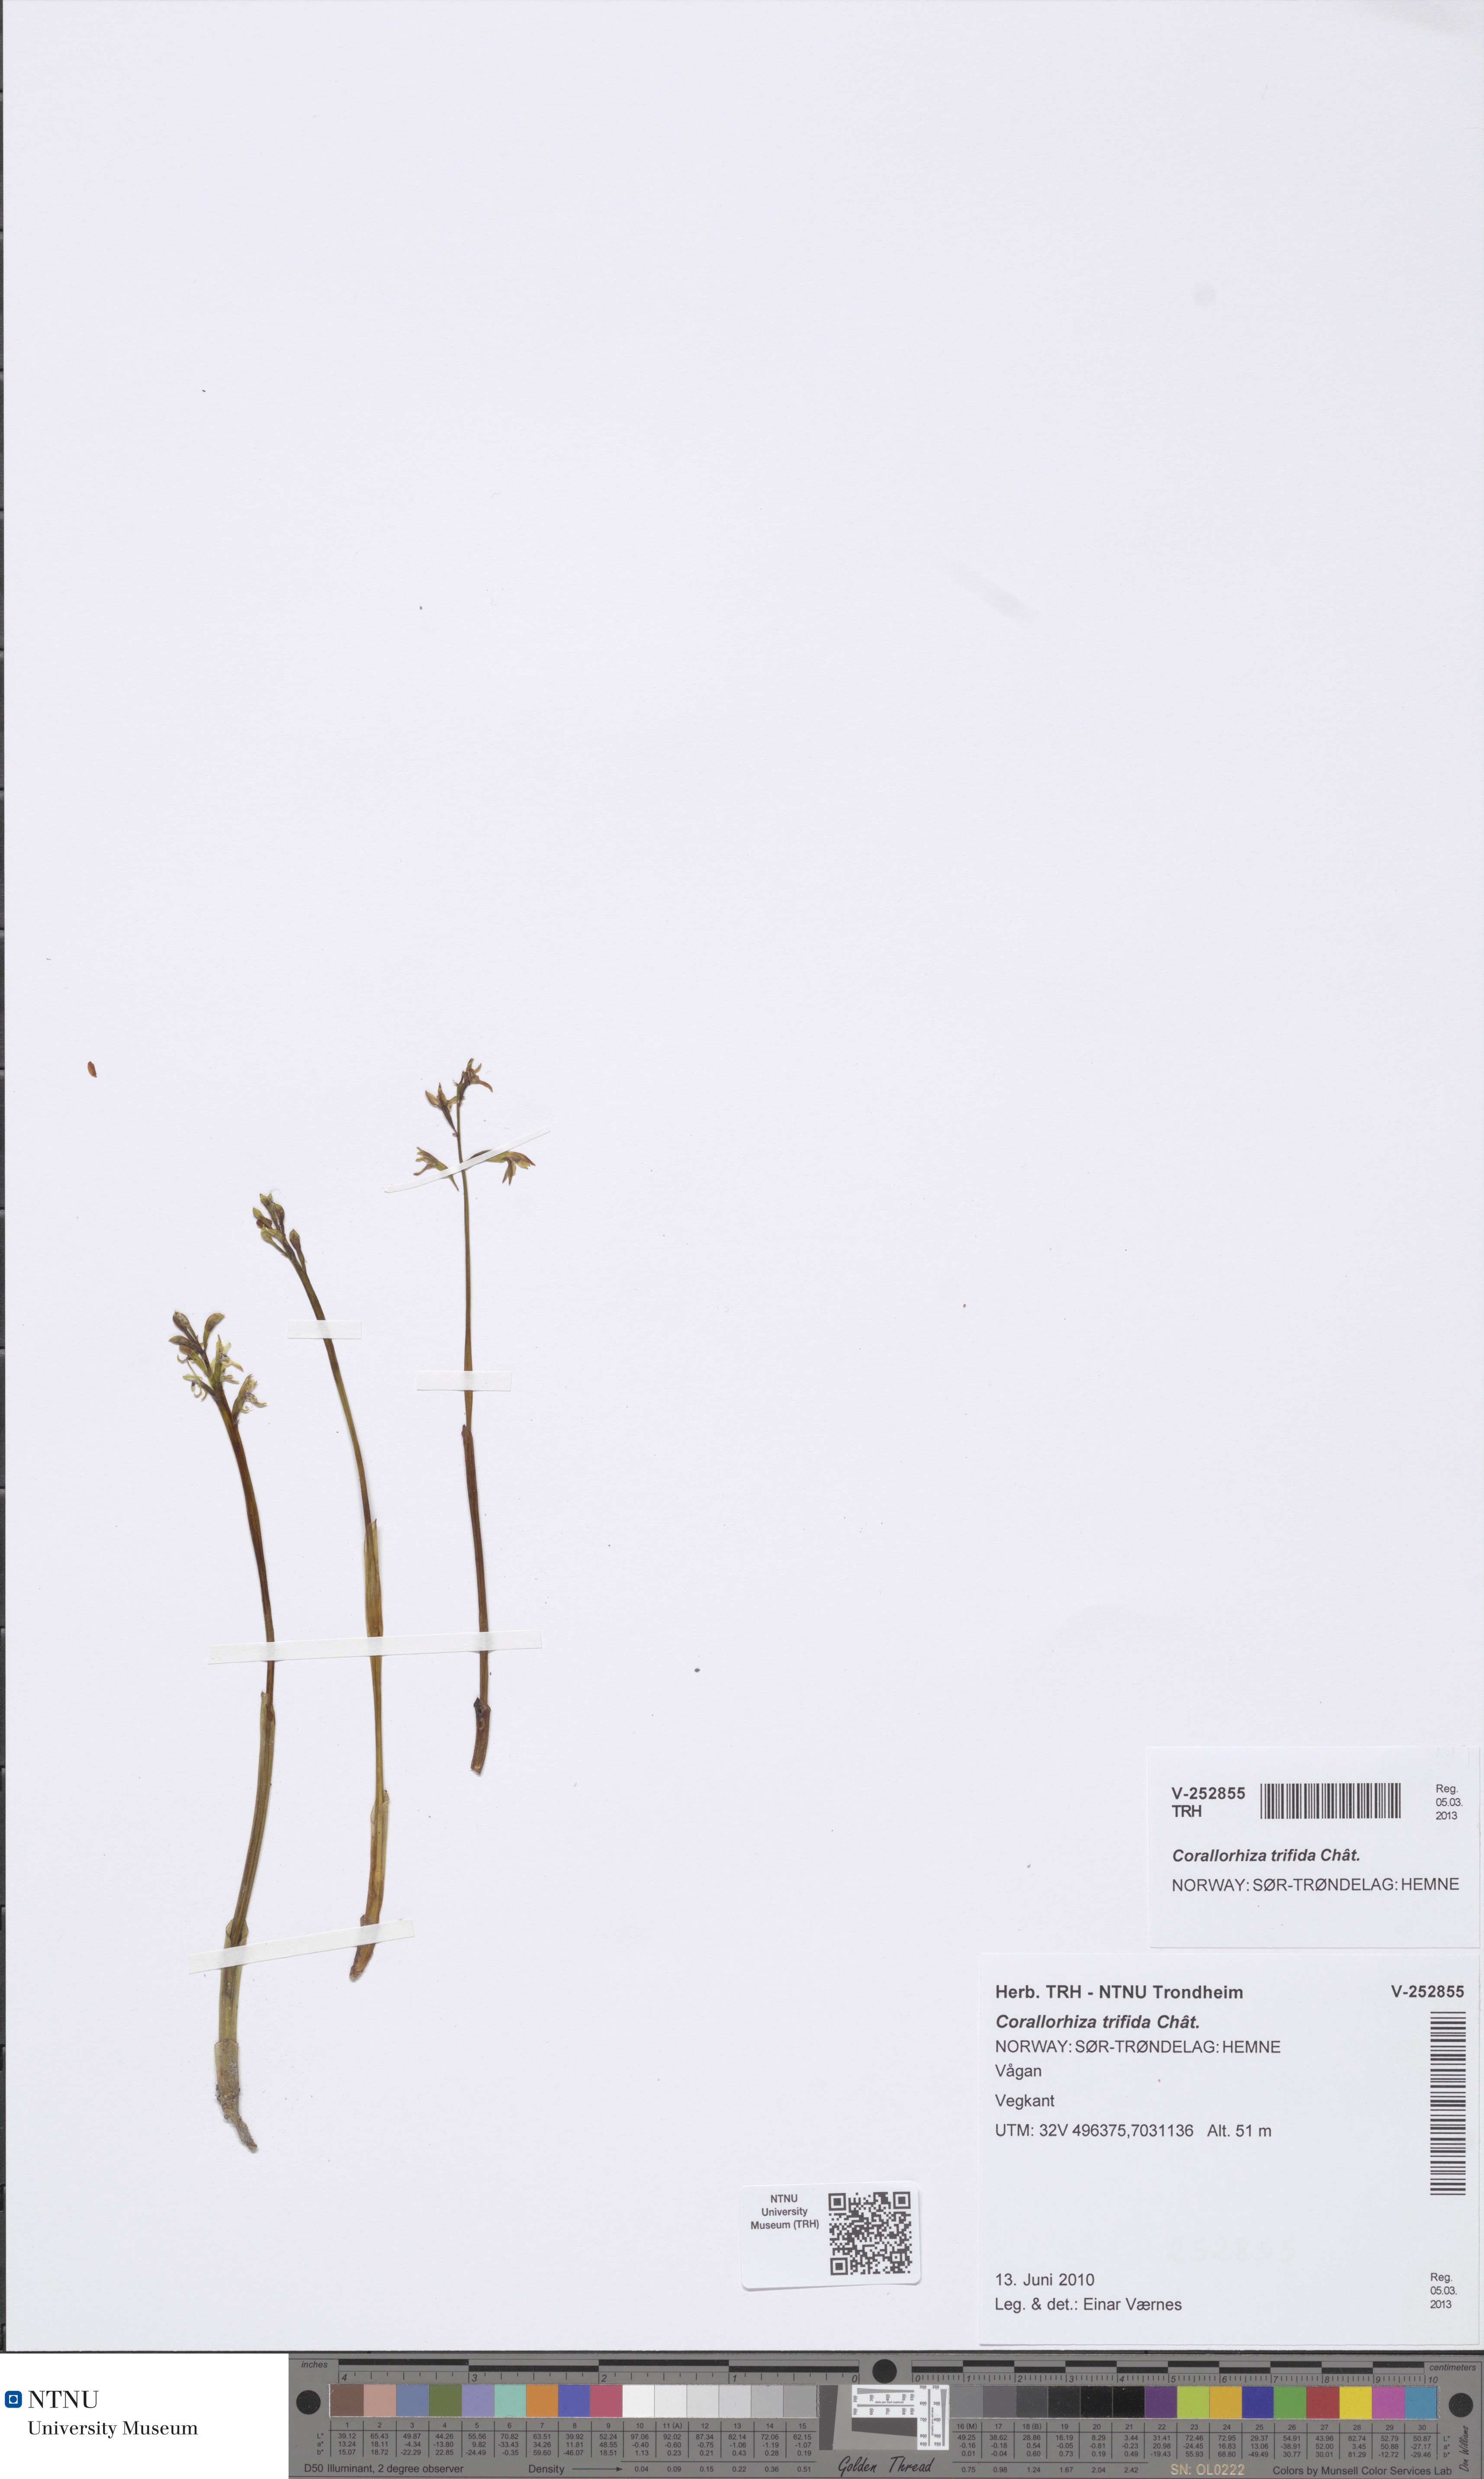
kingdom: Plantae
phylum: Tracheophyta
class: Liliopsida
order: Asparagales
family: Orchidaceae
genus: Corallorhiza
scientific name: Corallorhiza trifida
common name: Yellow coralroot
